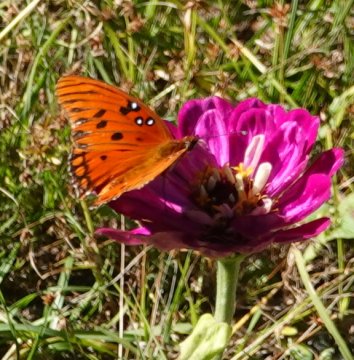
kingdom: Animalia
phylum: Arthropoda
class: Insecta
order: Lepidoptera
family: Nymphalidae
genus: Dione
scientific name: Dione vanillae
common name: Gulf Fritillary
